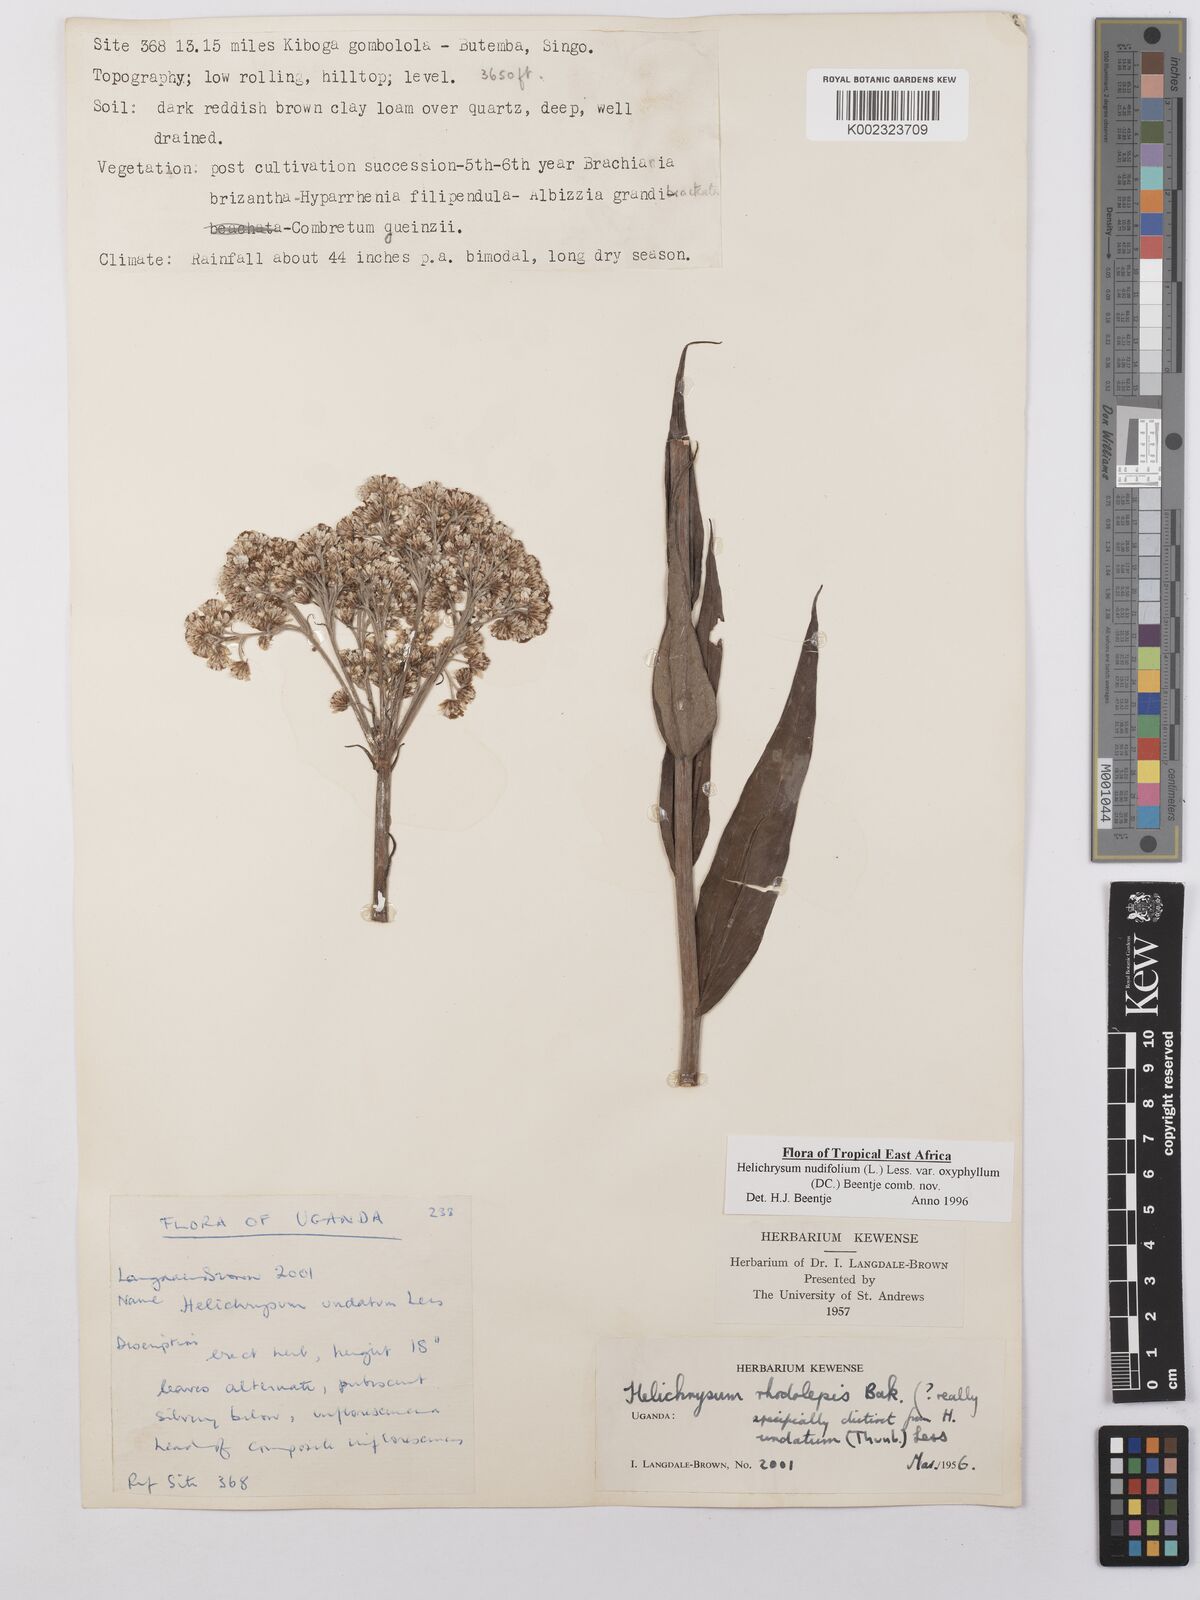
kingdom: Plantae
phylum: Tracheophyta
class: Magnoliopsida
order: Asterales
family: Asteraceae
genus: Helichrysum
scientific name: Helichrysum nudifolium
